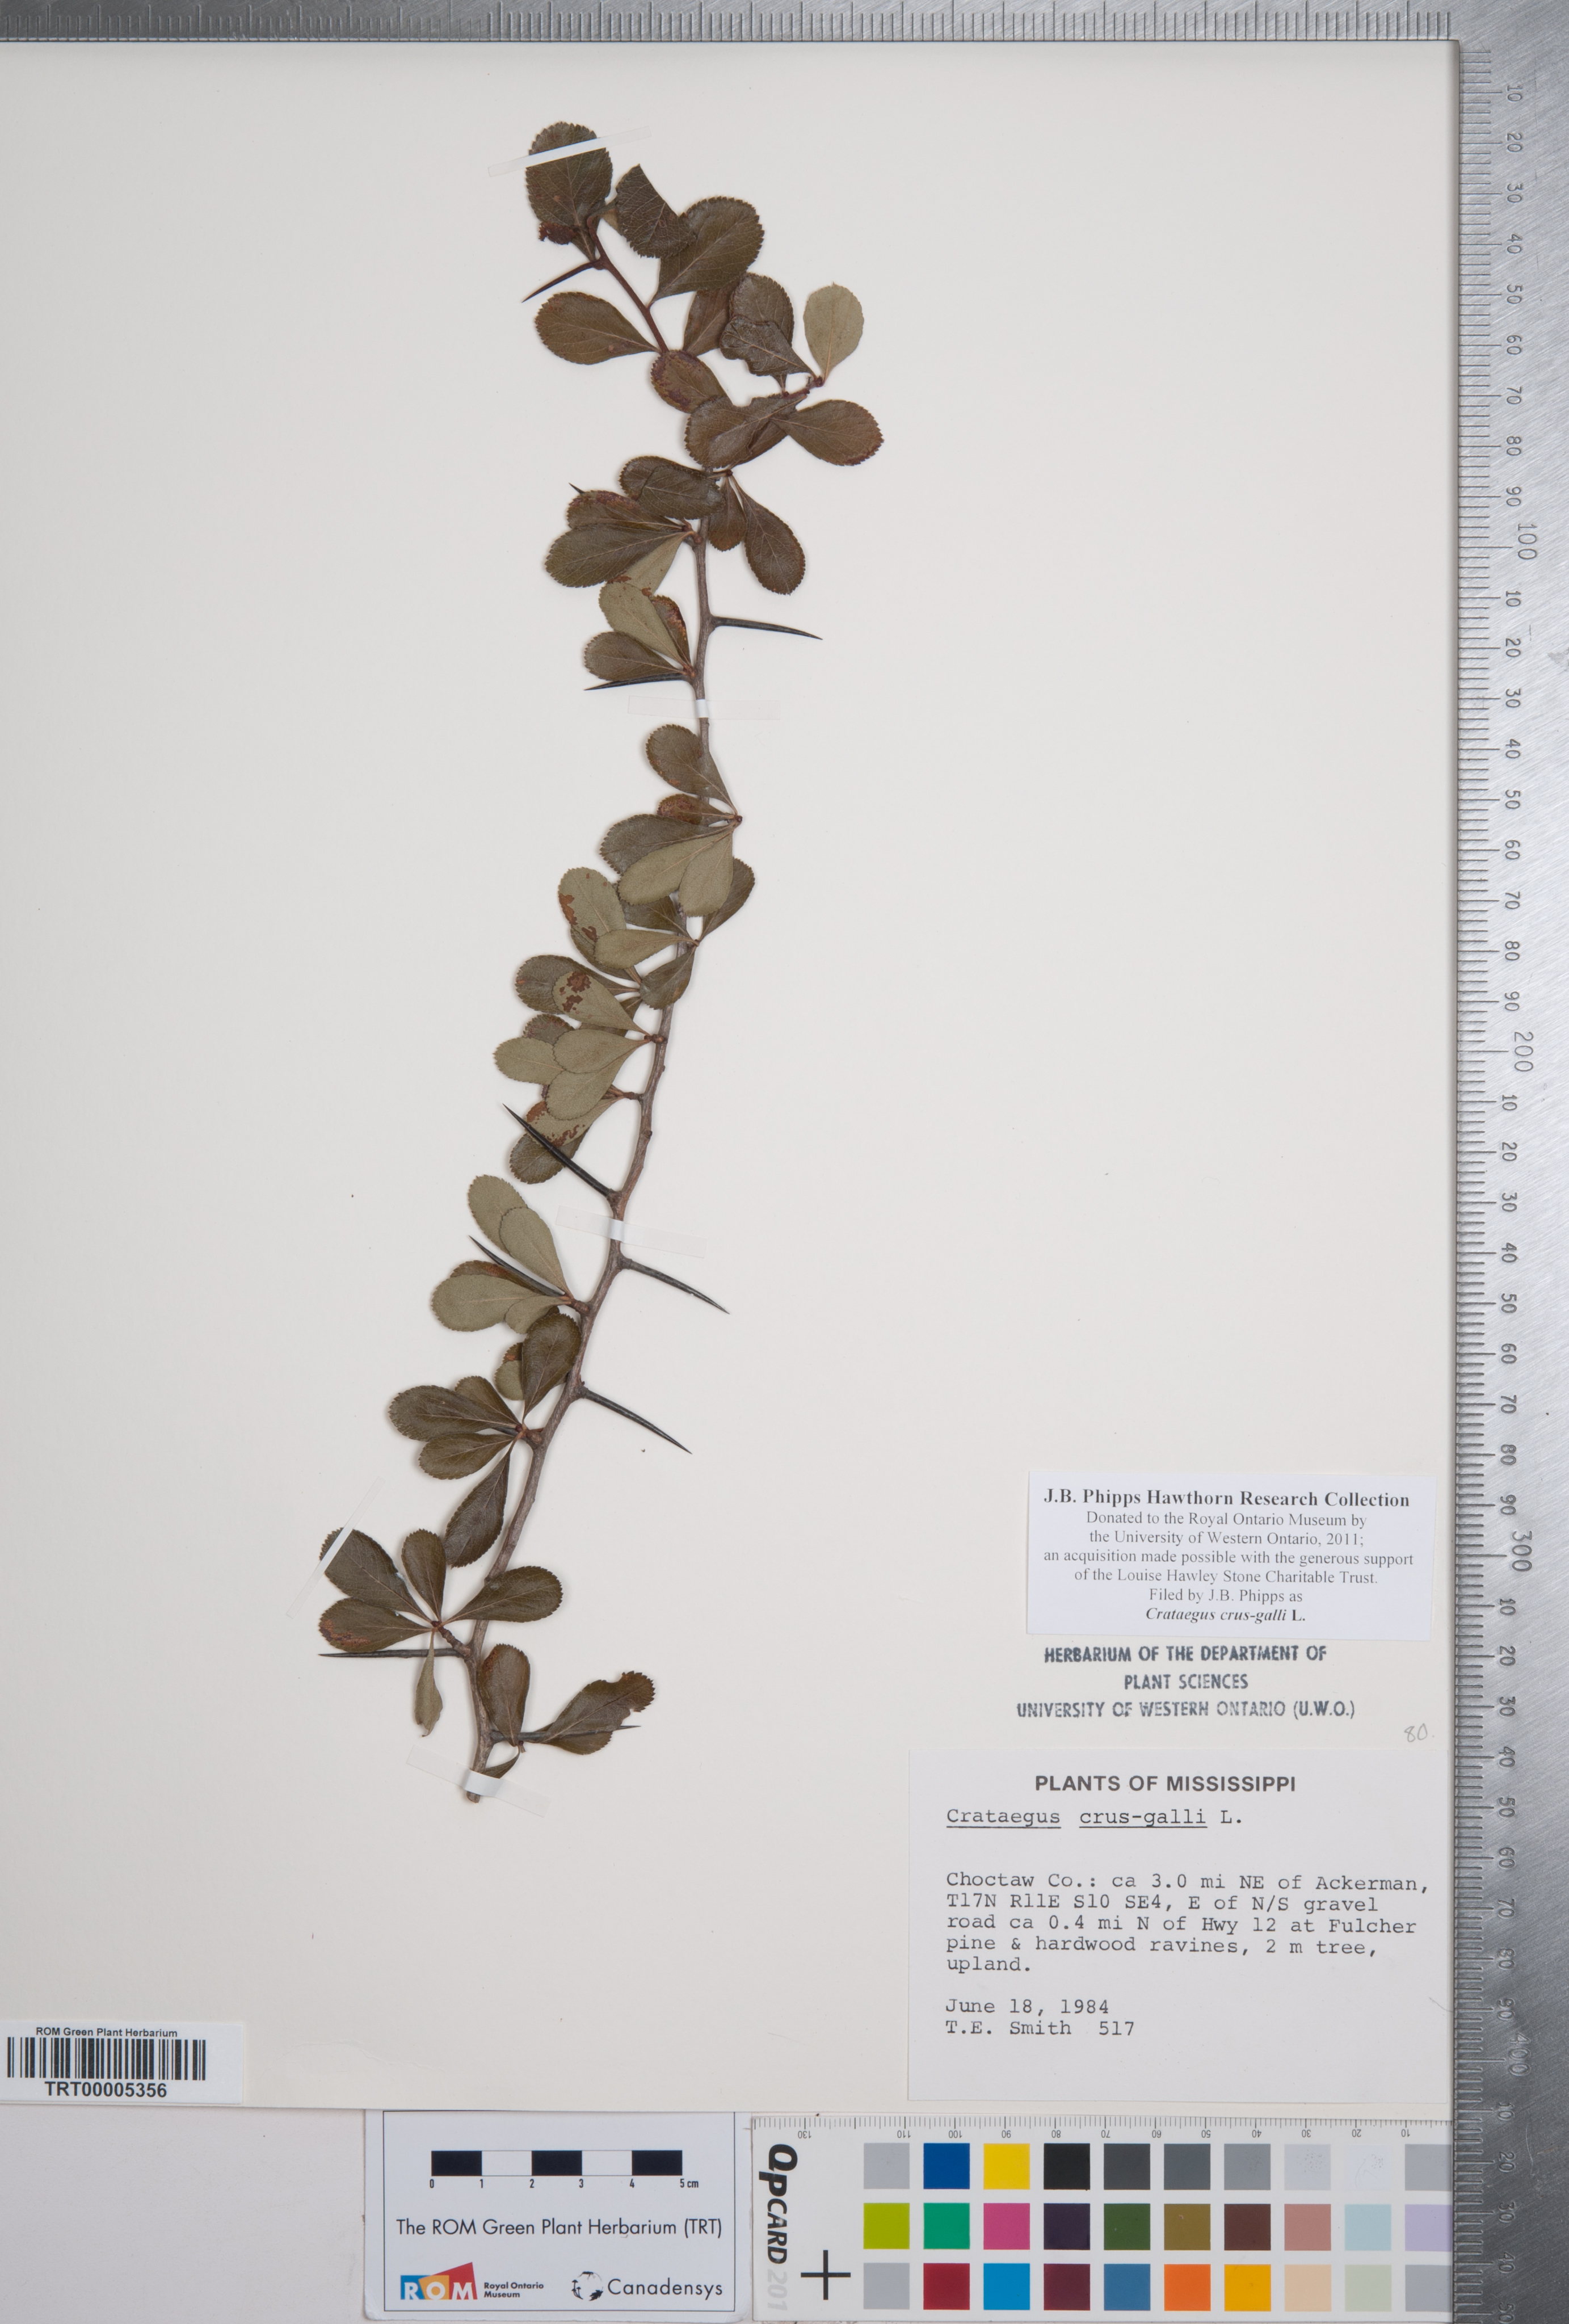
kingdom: Plantae
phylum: Tracheophyta
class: Magnoliopsida
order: Rosales
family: Rosaceae
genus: Crataegus
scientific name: Crataegus crus-galli
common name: Cockspurthorn
